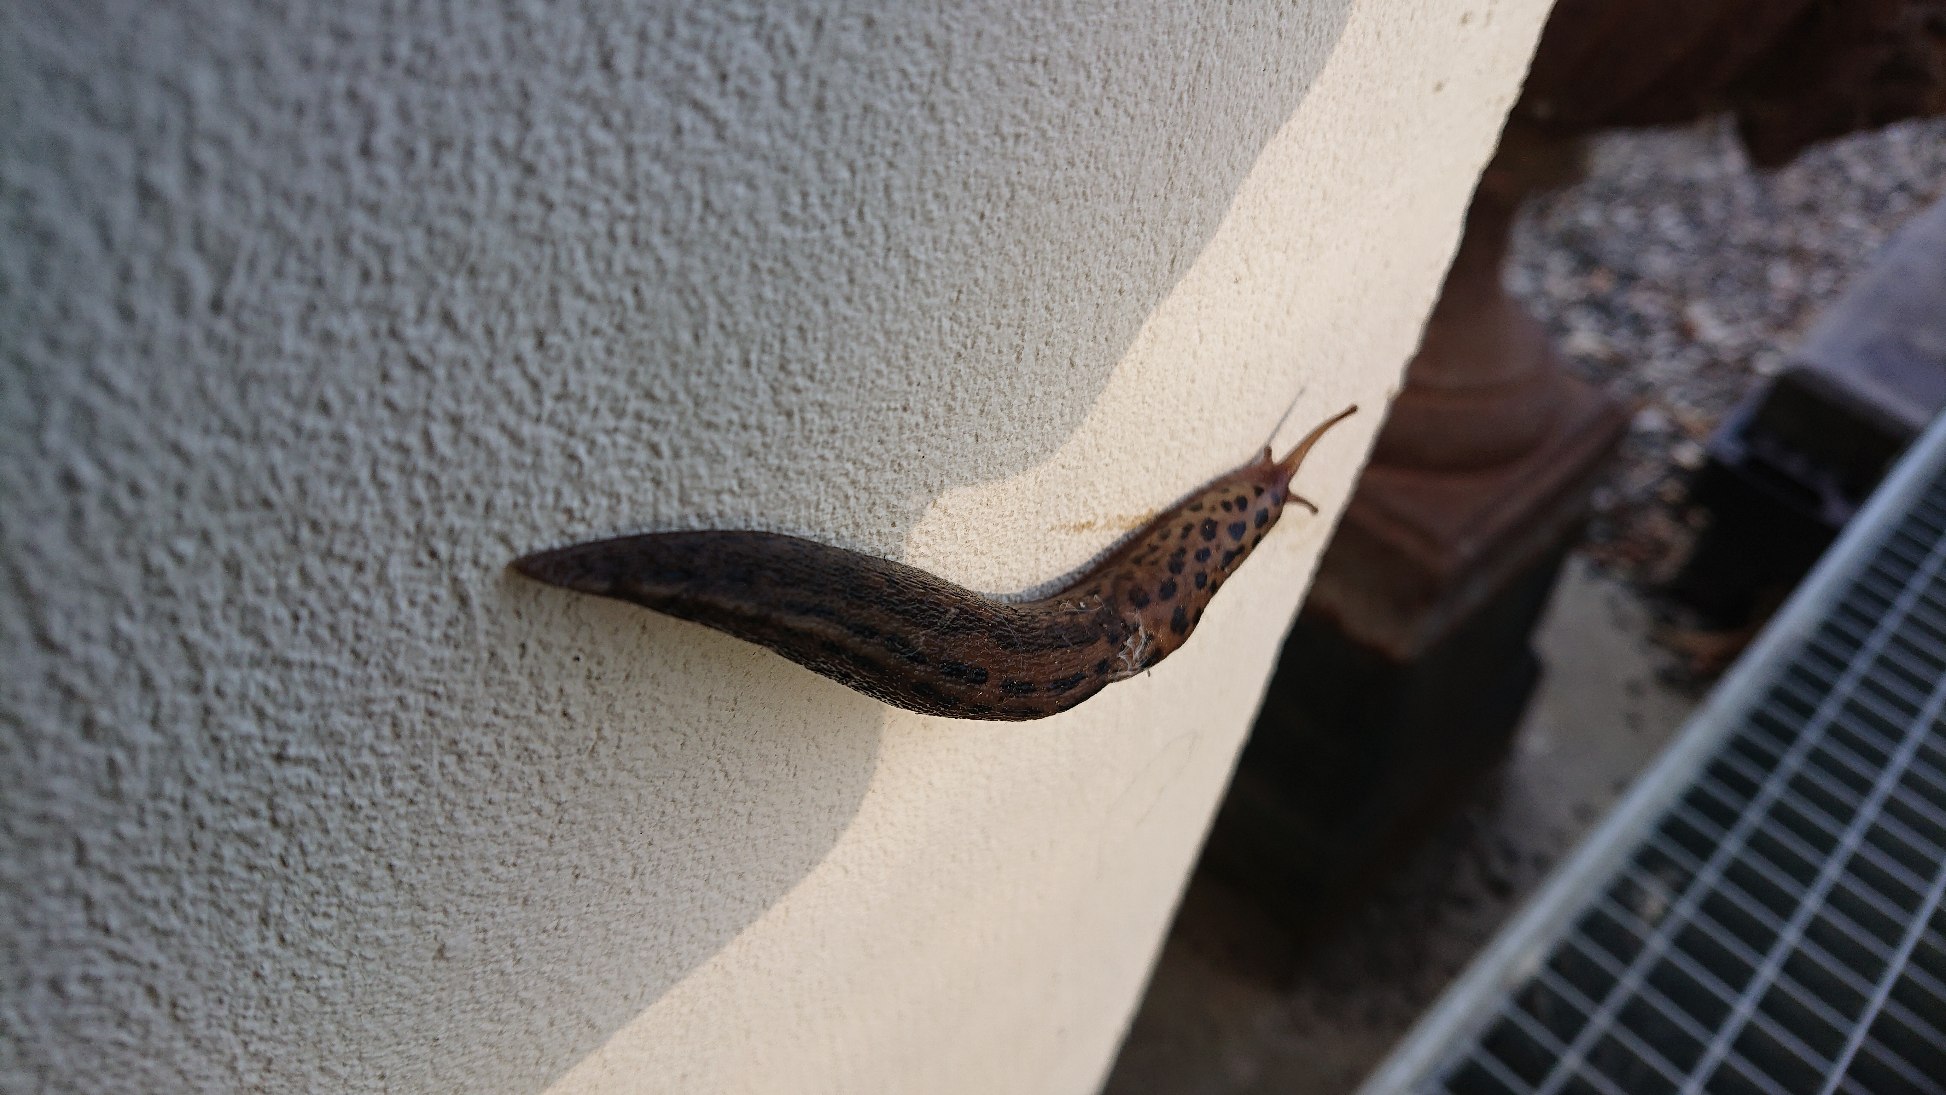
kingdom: Animalia
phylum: Mollusca
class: Gastropoda
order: Stylommatophora
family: Limacidae
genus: Limax
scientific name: Limax maximus
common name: Pantersnegl
